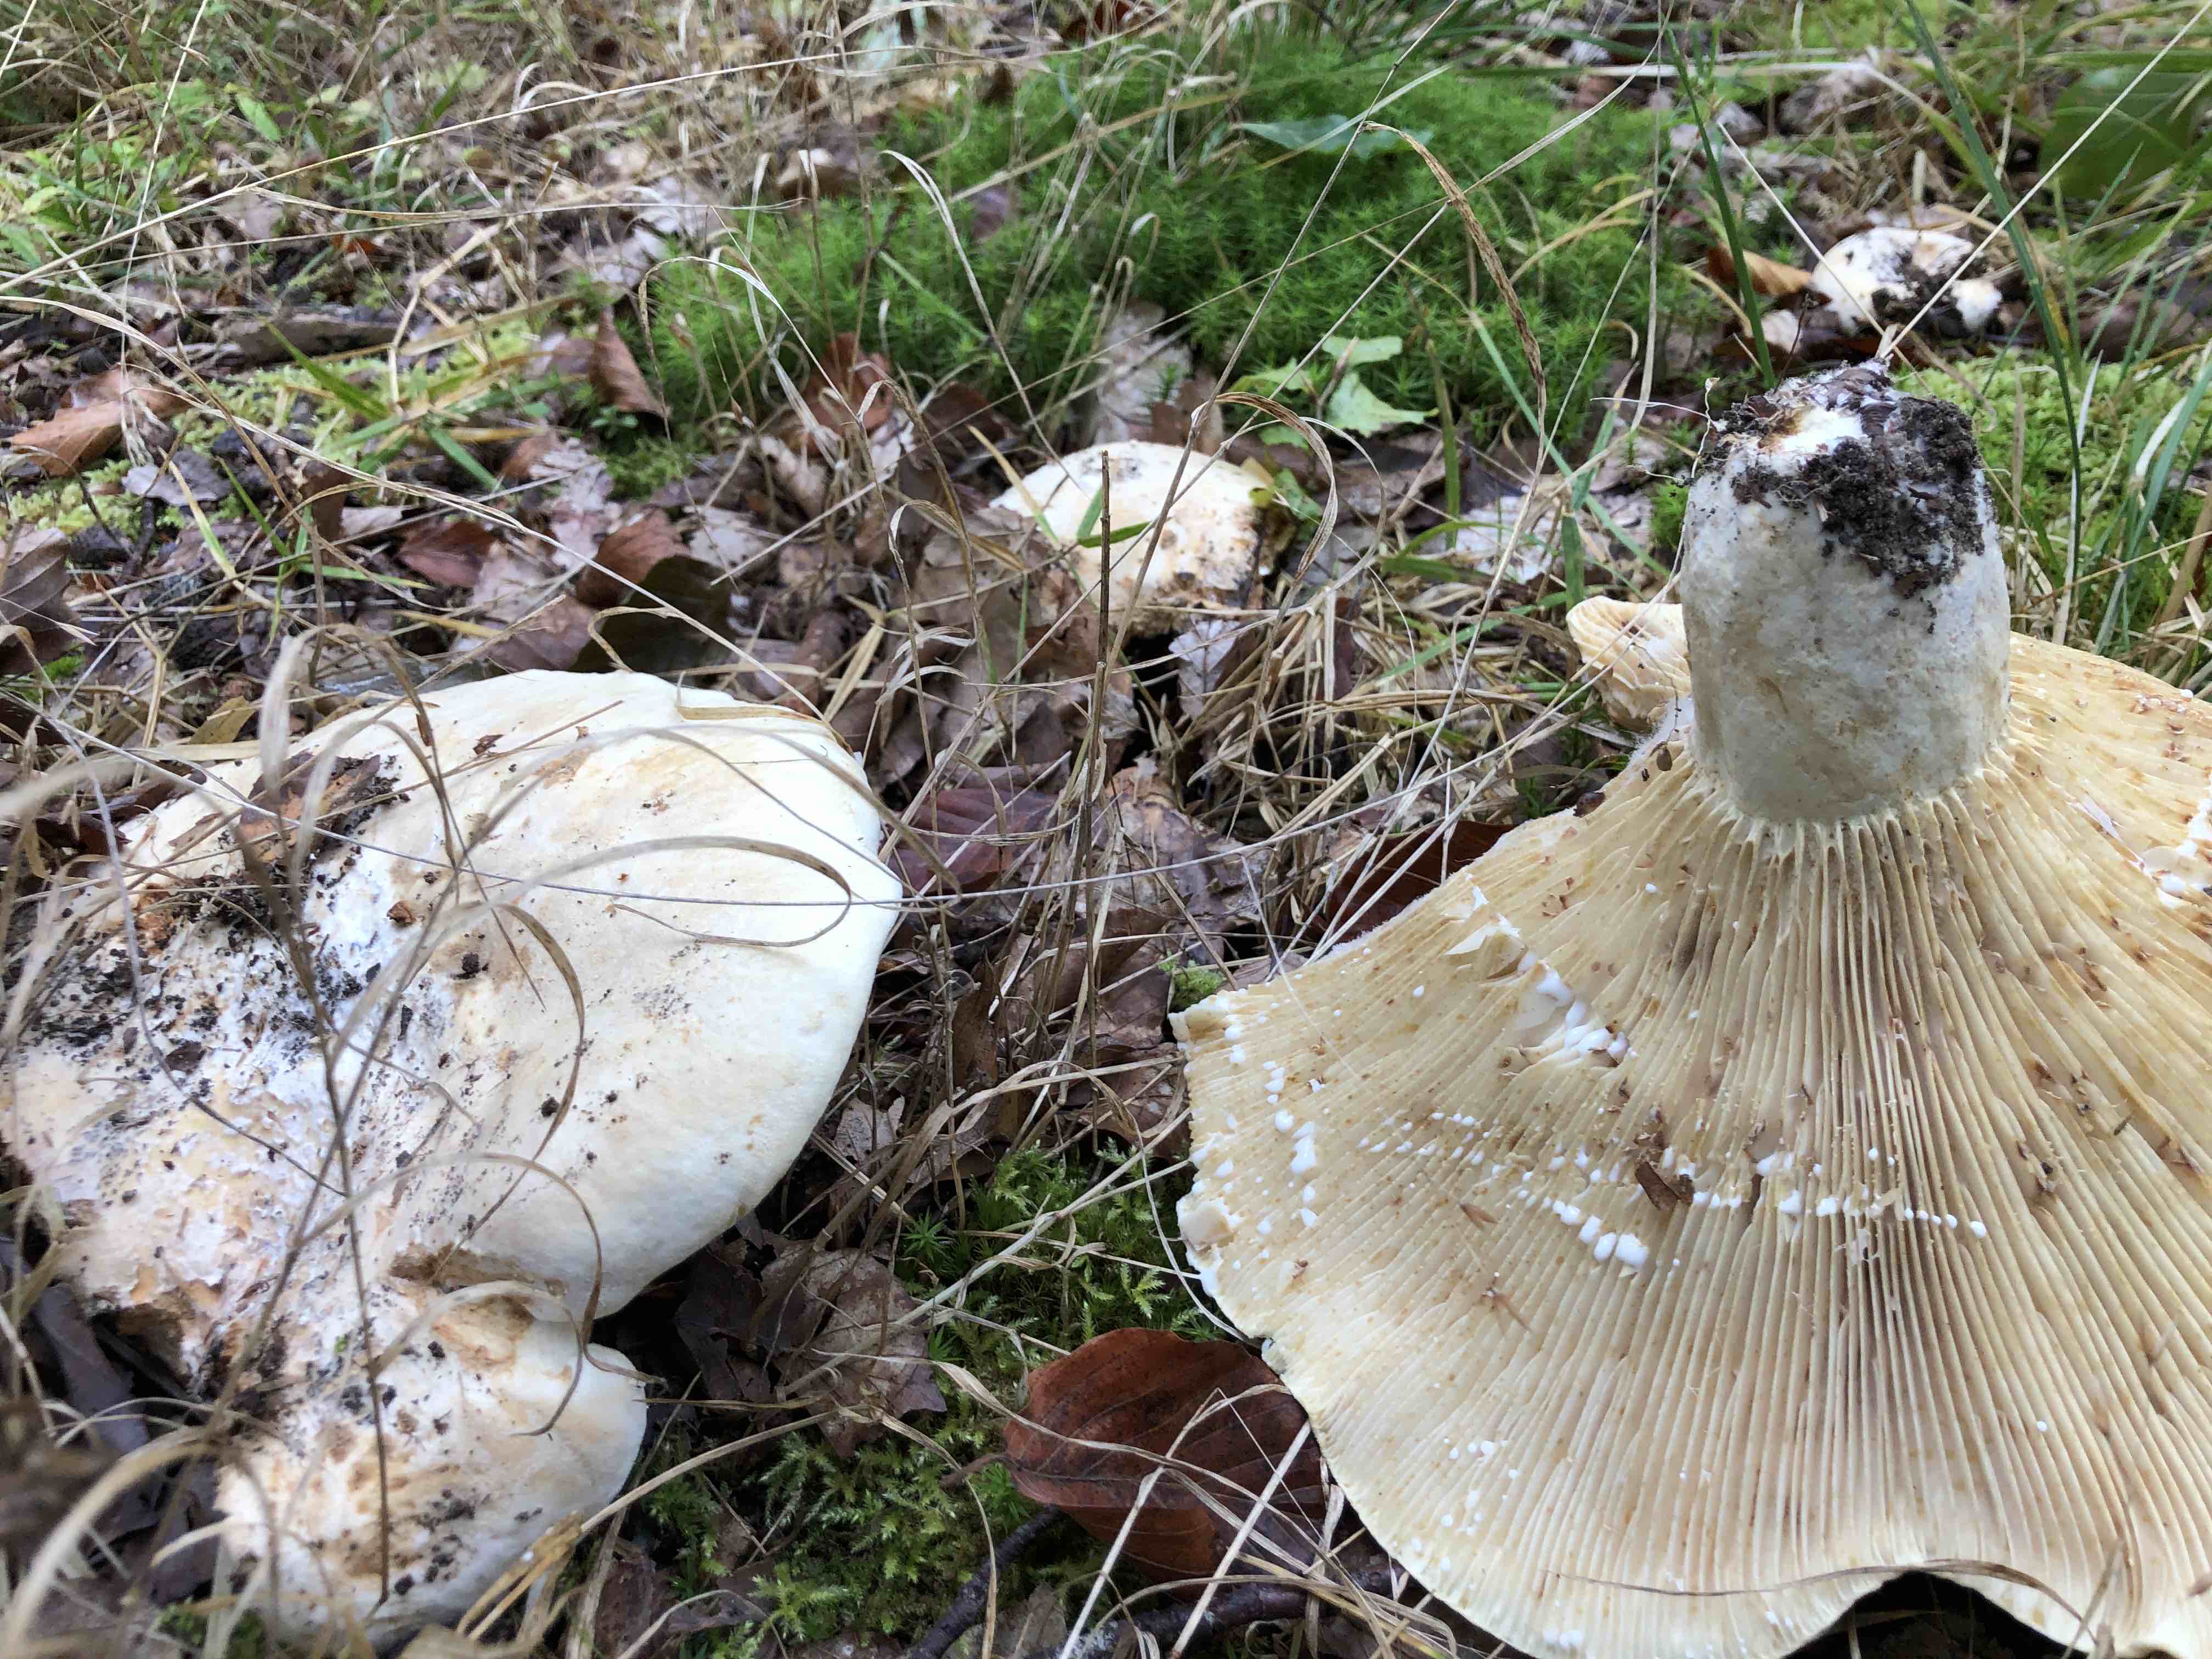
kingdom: Fungi
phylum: Basidiomycota
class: Agaricomycetes
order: Russulales
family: Russulaceae
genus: Lactifluus
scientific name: Lactifluus vellereus
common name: hvidfiltet mælkehat
